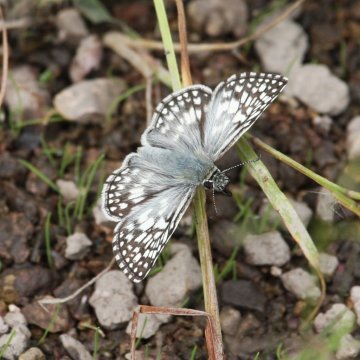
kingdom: Animalia
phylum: Arthropoda
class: Insecta
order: Lepidoptera
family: Hesperiidae
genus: Pyrgus
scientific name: Pyrgus oileus
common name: Tropical Checkered-Skipper
